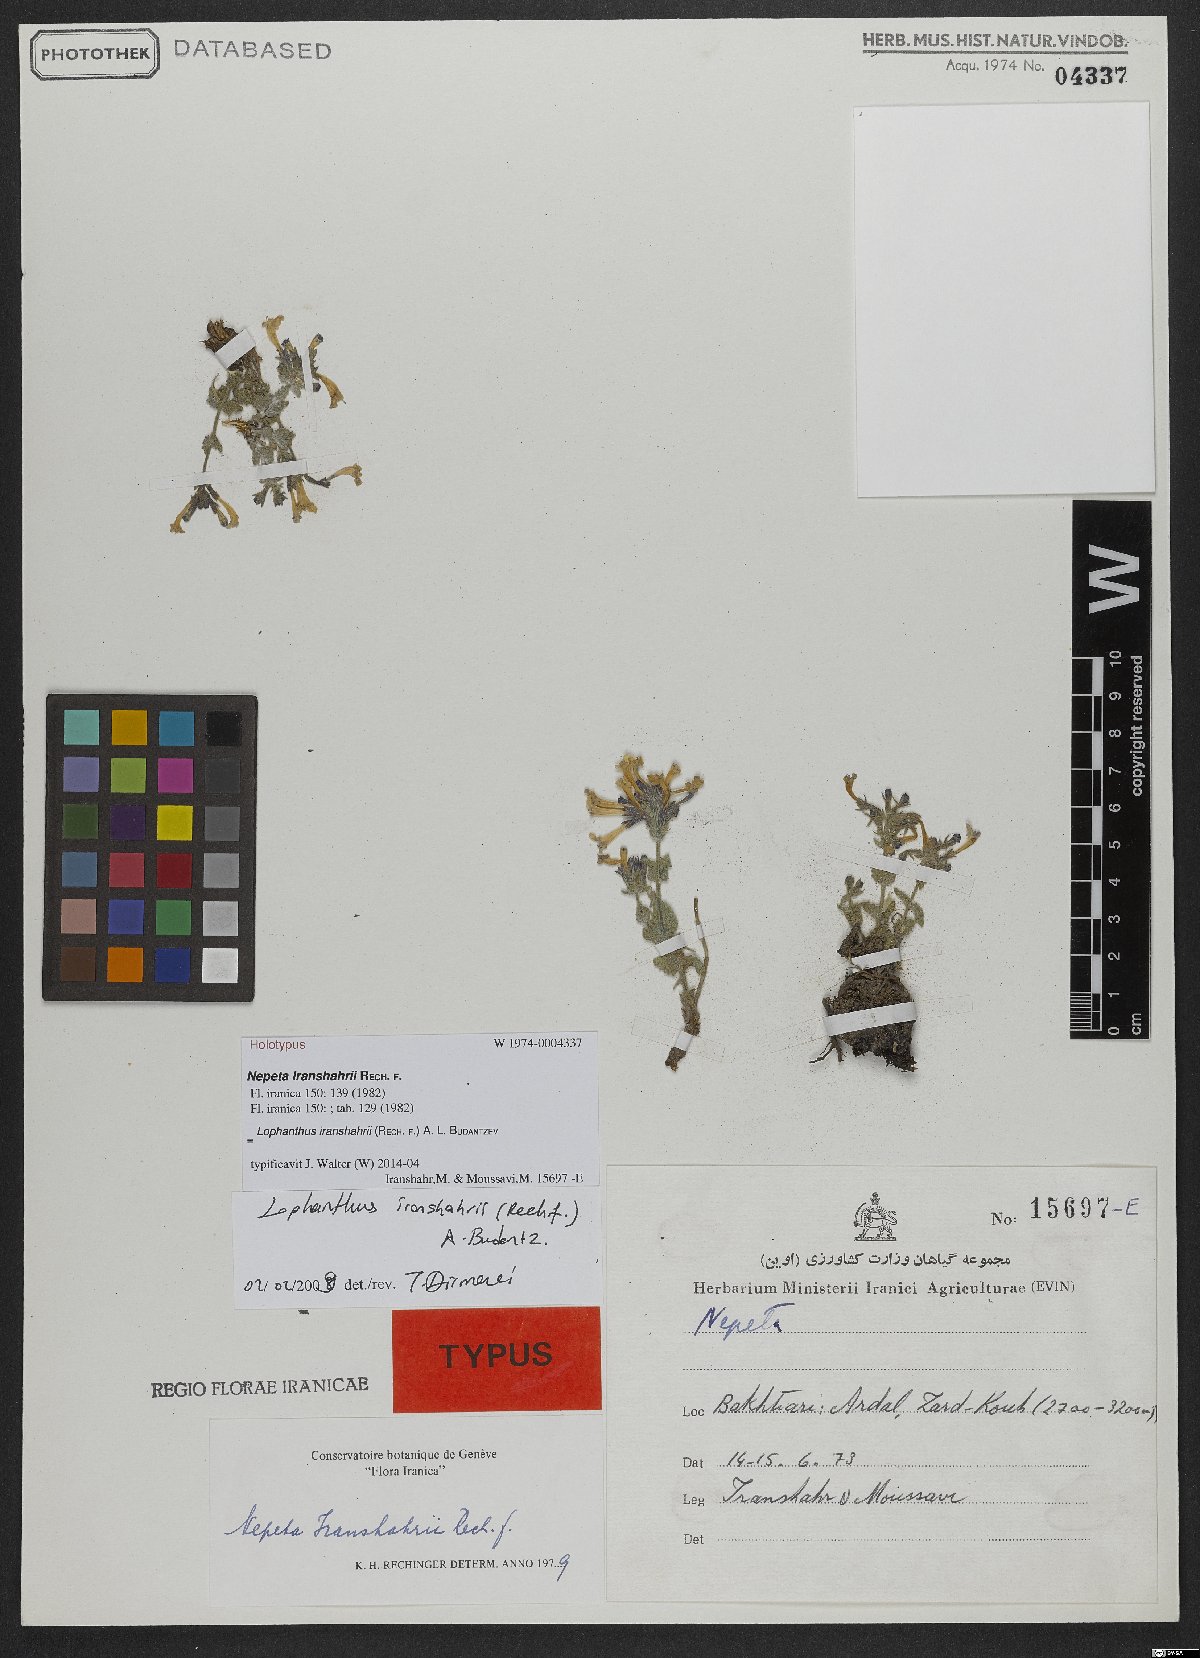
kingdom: Plantae
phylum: Tracheophyta
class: Magnoliopsida
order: Lamiales
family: Lamiaceae
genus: Nepeta
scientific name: Nepeta iranshahrii
